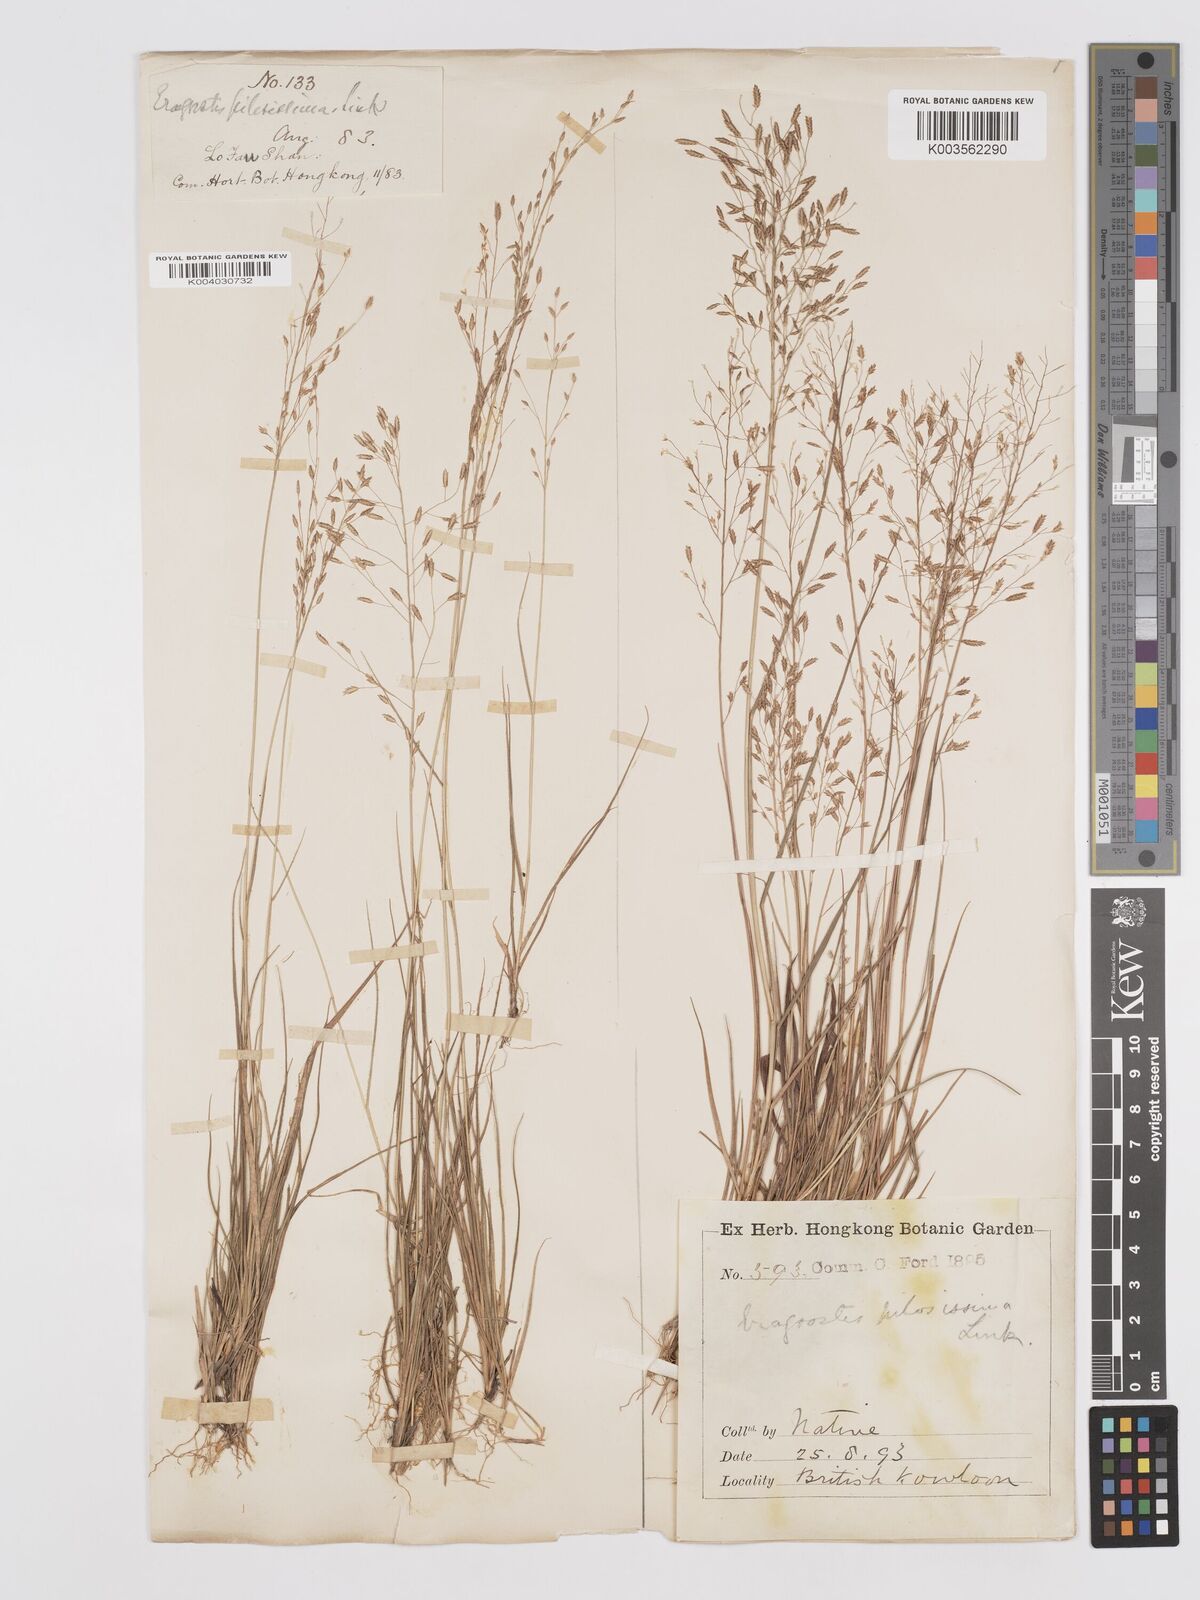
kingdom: Plantae
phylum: Tracheophyta
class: Liliopsida
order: Poales
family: Poaceae
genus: Eragrostis
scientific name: Eragrostis pilosissima
